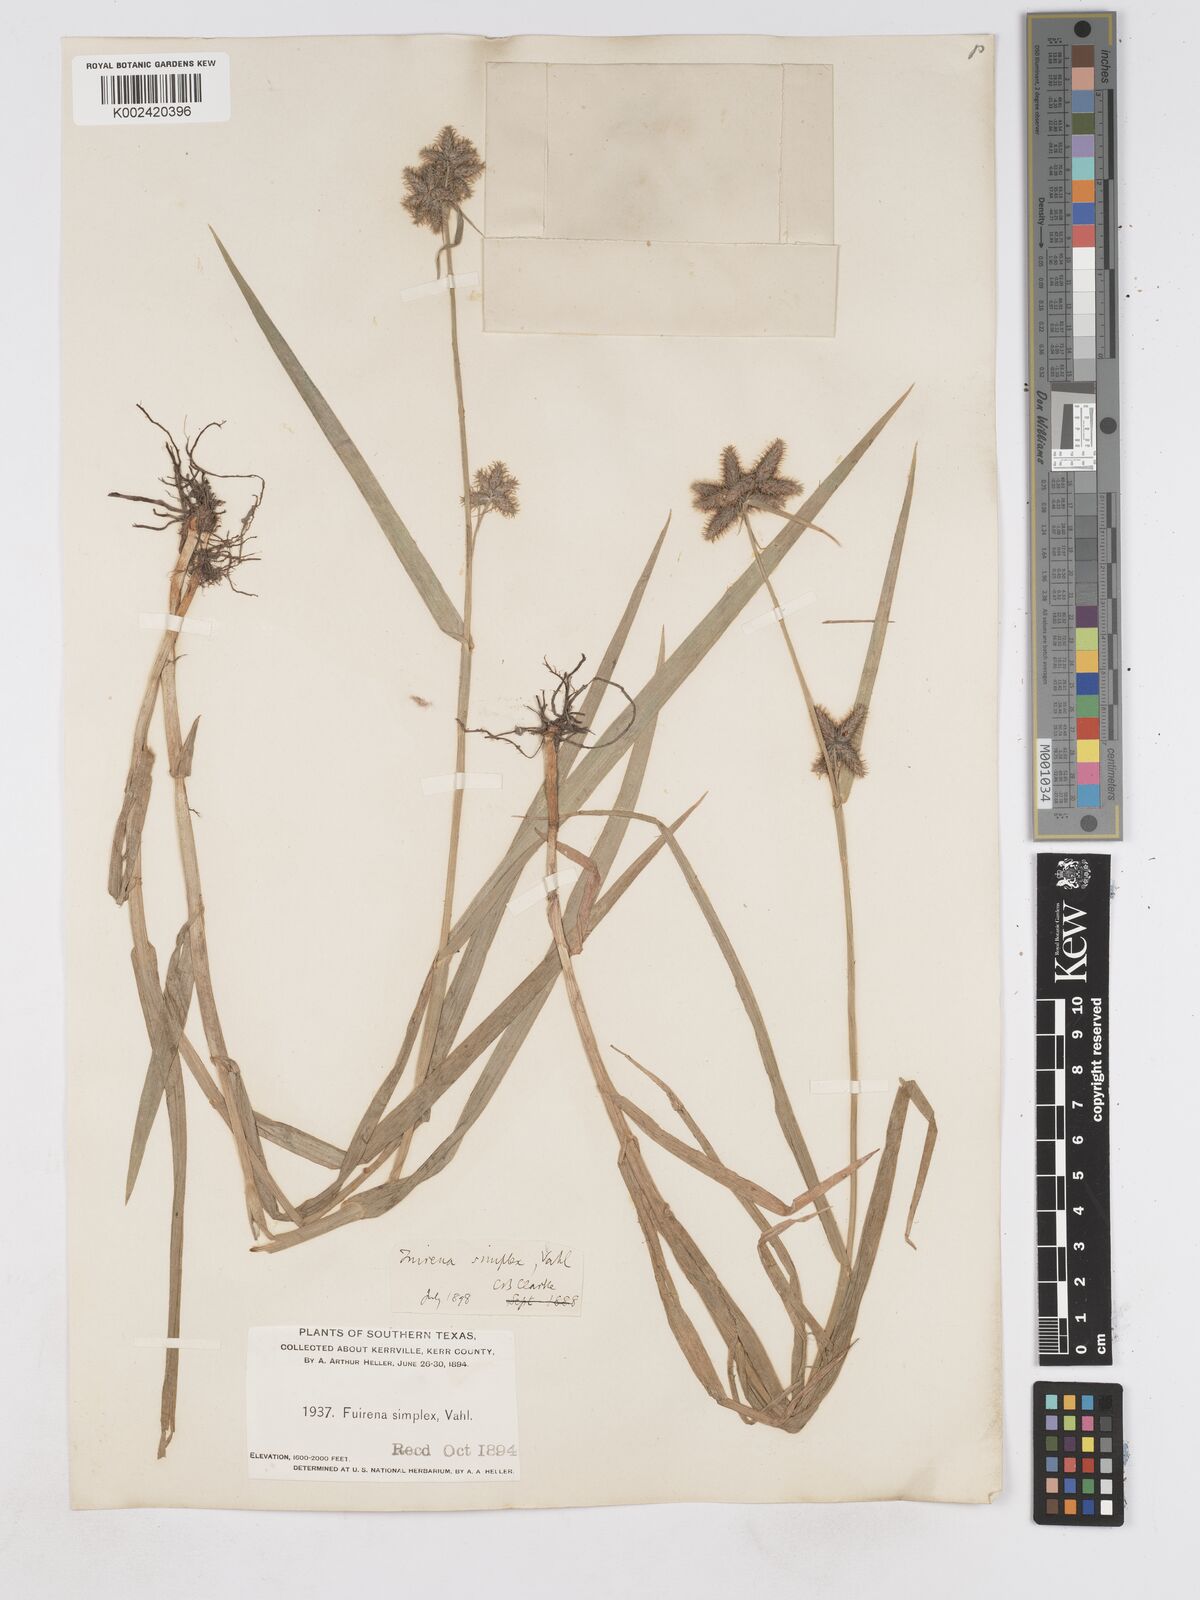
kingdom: Plantae
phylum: Tracheophyta
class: Liliopsida
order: Poales
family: Cyperaceae
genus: Fuirena
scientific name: Fuirena simplex
